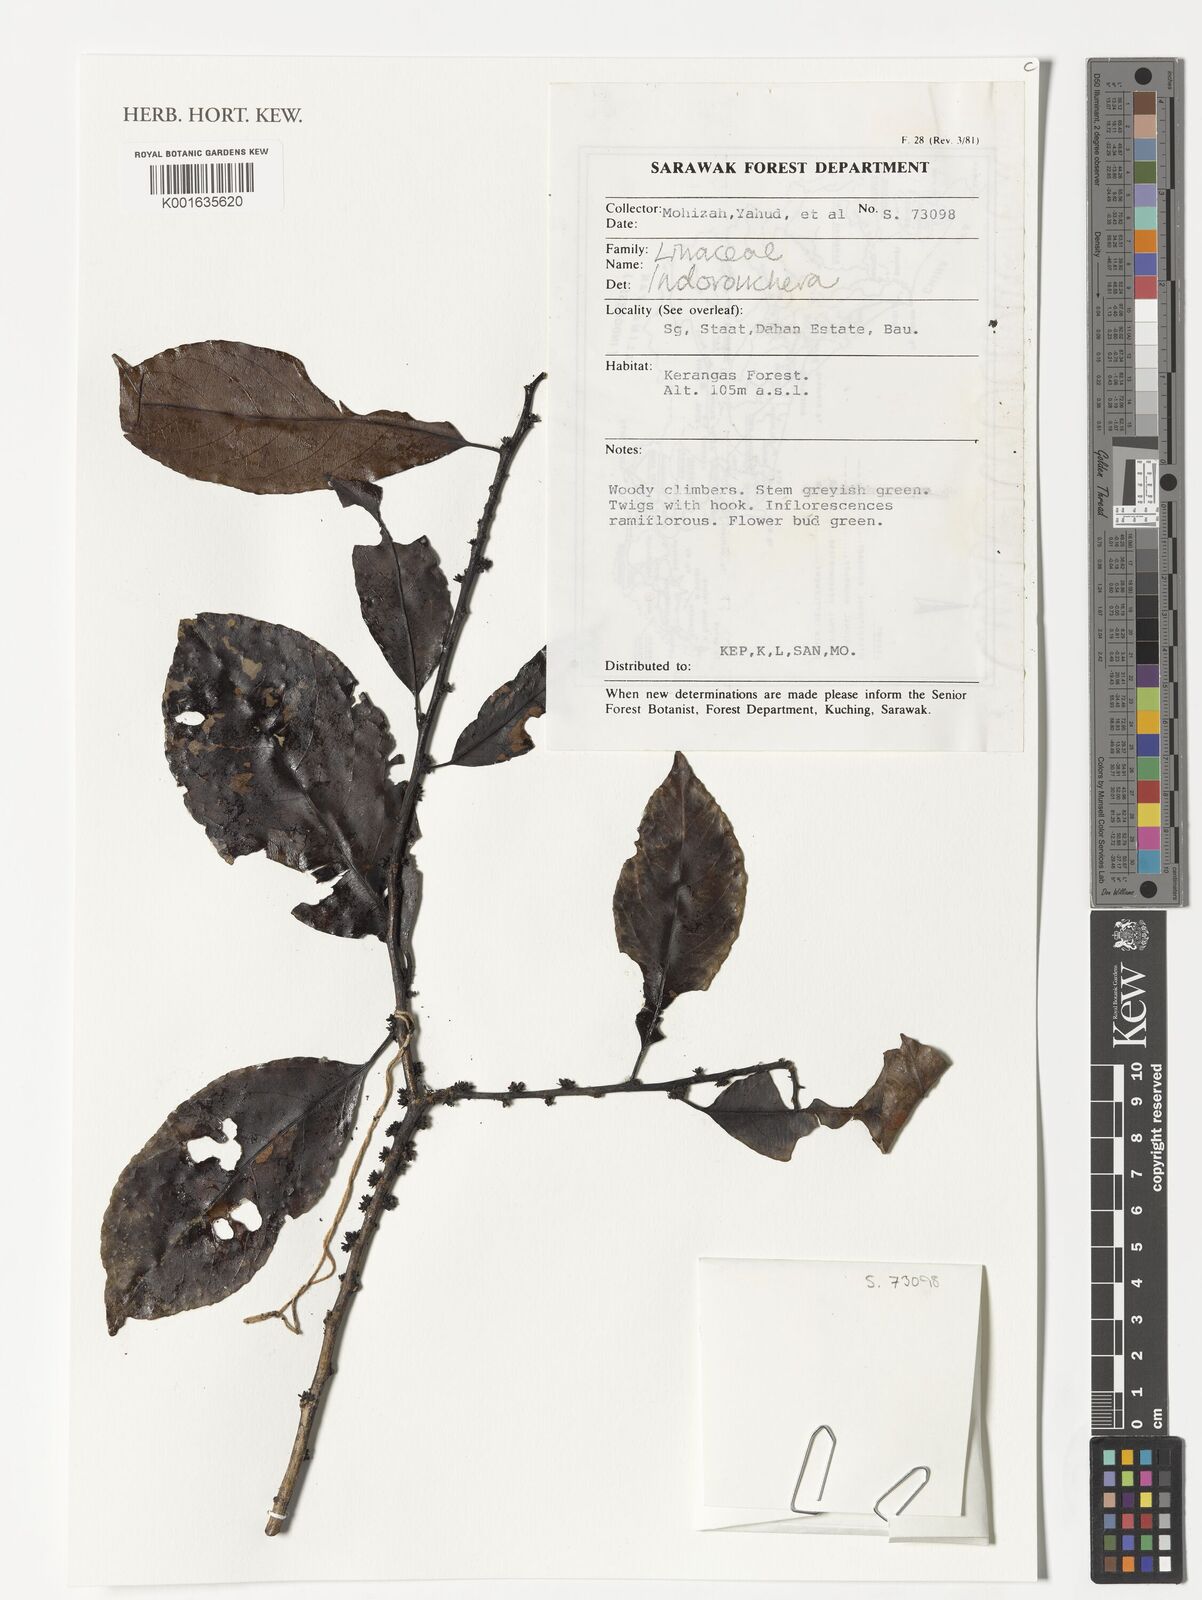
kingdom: Plantae
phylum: Tracheophyta
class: Magnoliopsida
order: Malpighiales
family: Linaceae
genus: Indorouchera
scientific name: Indorouchera
